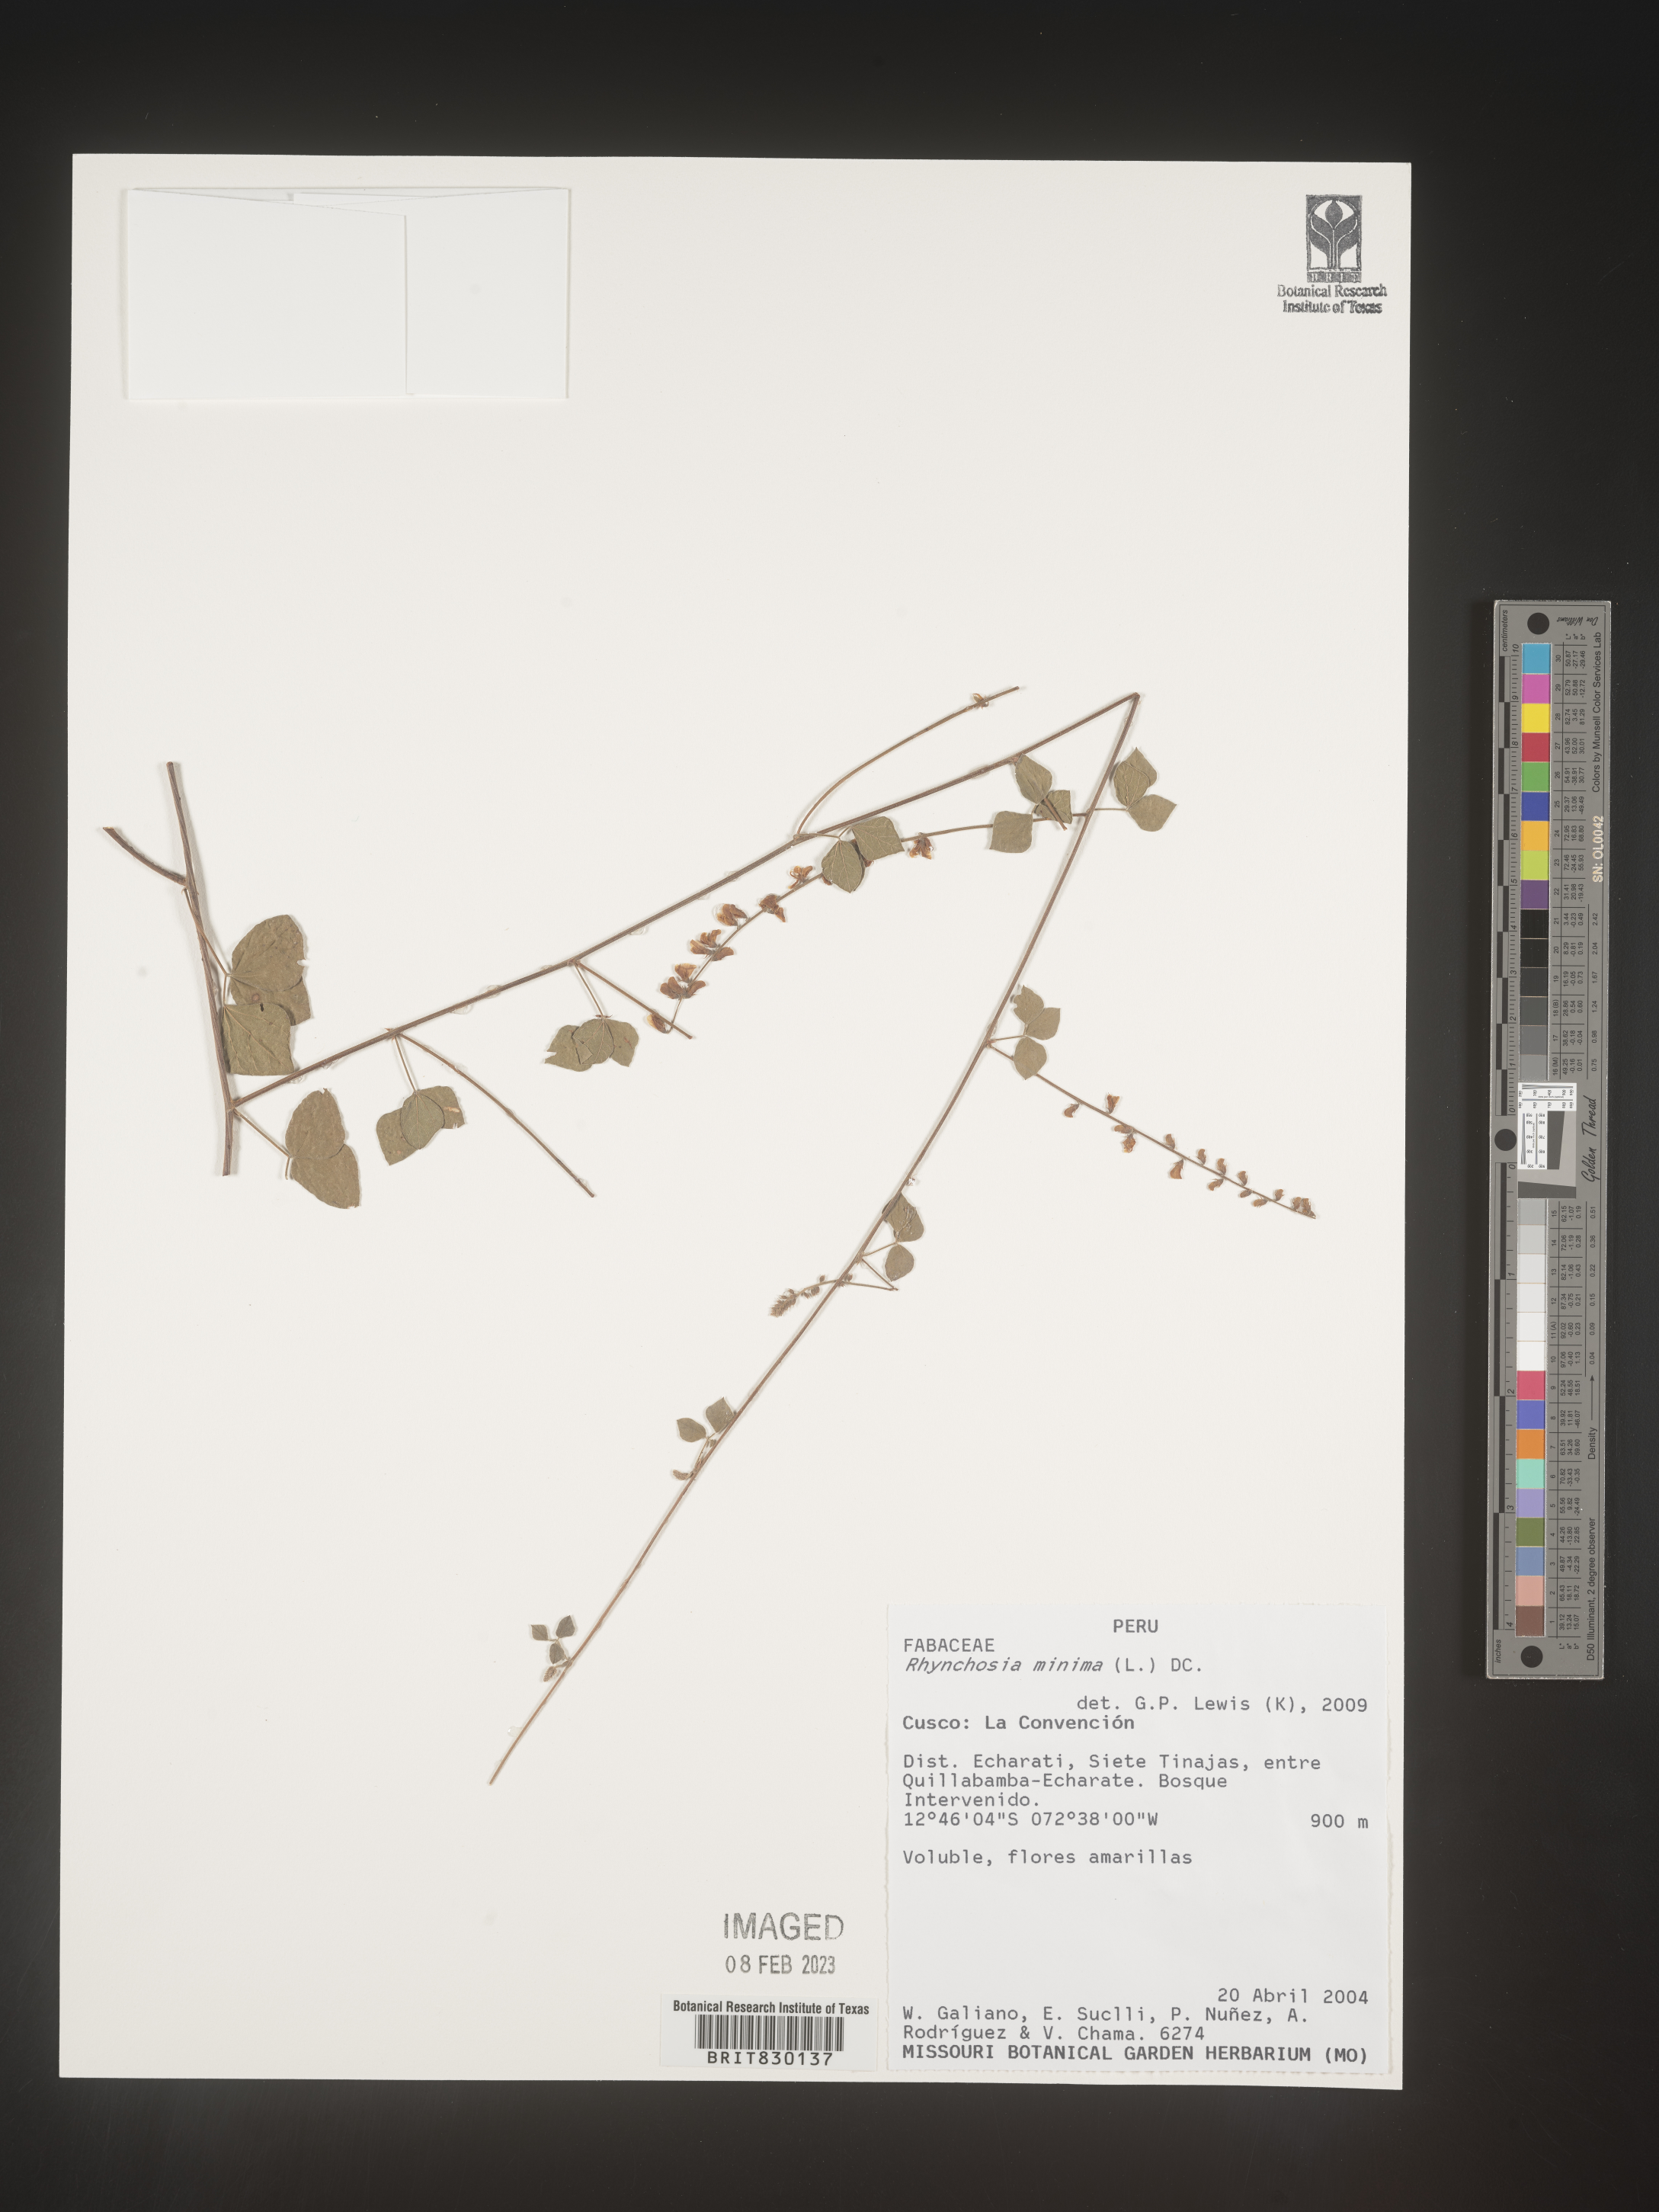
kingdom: Plantae
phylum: Tracheophyta
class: Magnoliopsida
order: Fabales
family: Fabaceae
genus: Rhynchosia
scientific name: Rhynchosia
